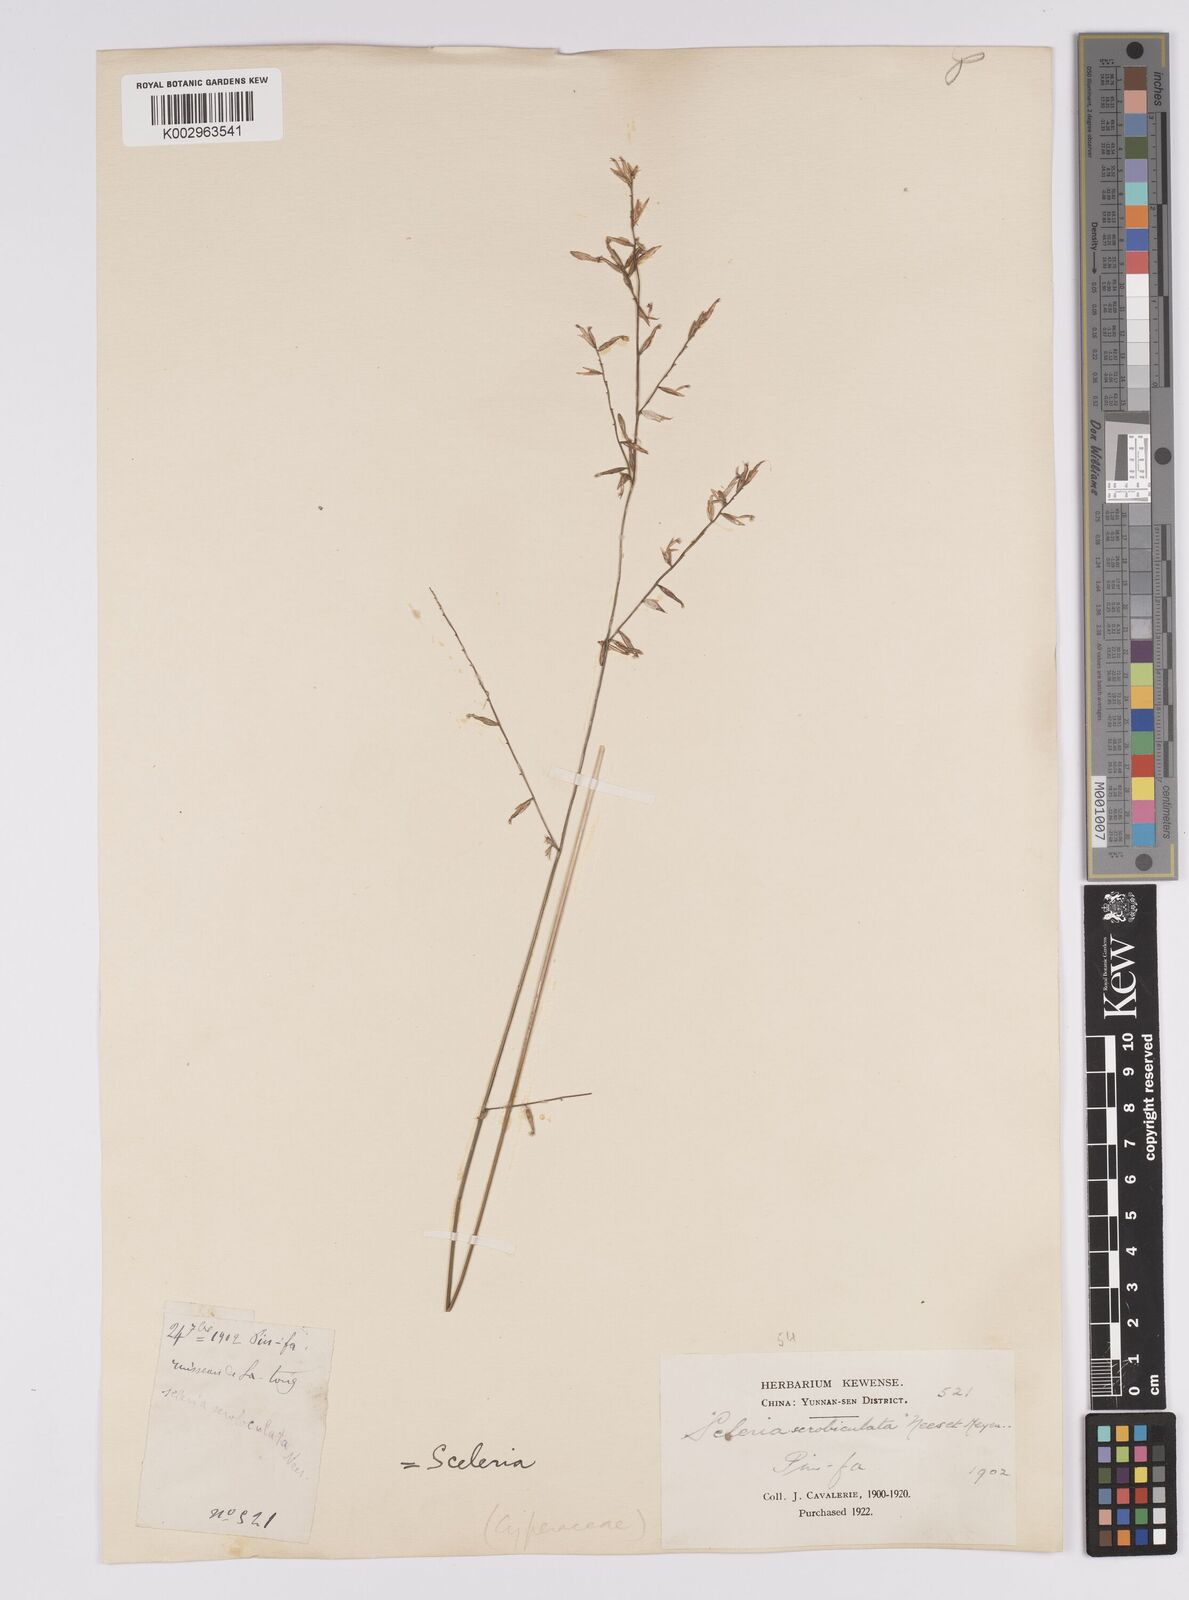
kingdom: Plantae
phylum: Tracheophyta
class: Liliopsida
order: Poales
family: Cyperaceae
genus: Scleria
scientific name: Scleria scrobiculata
